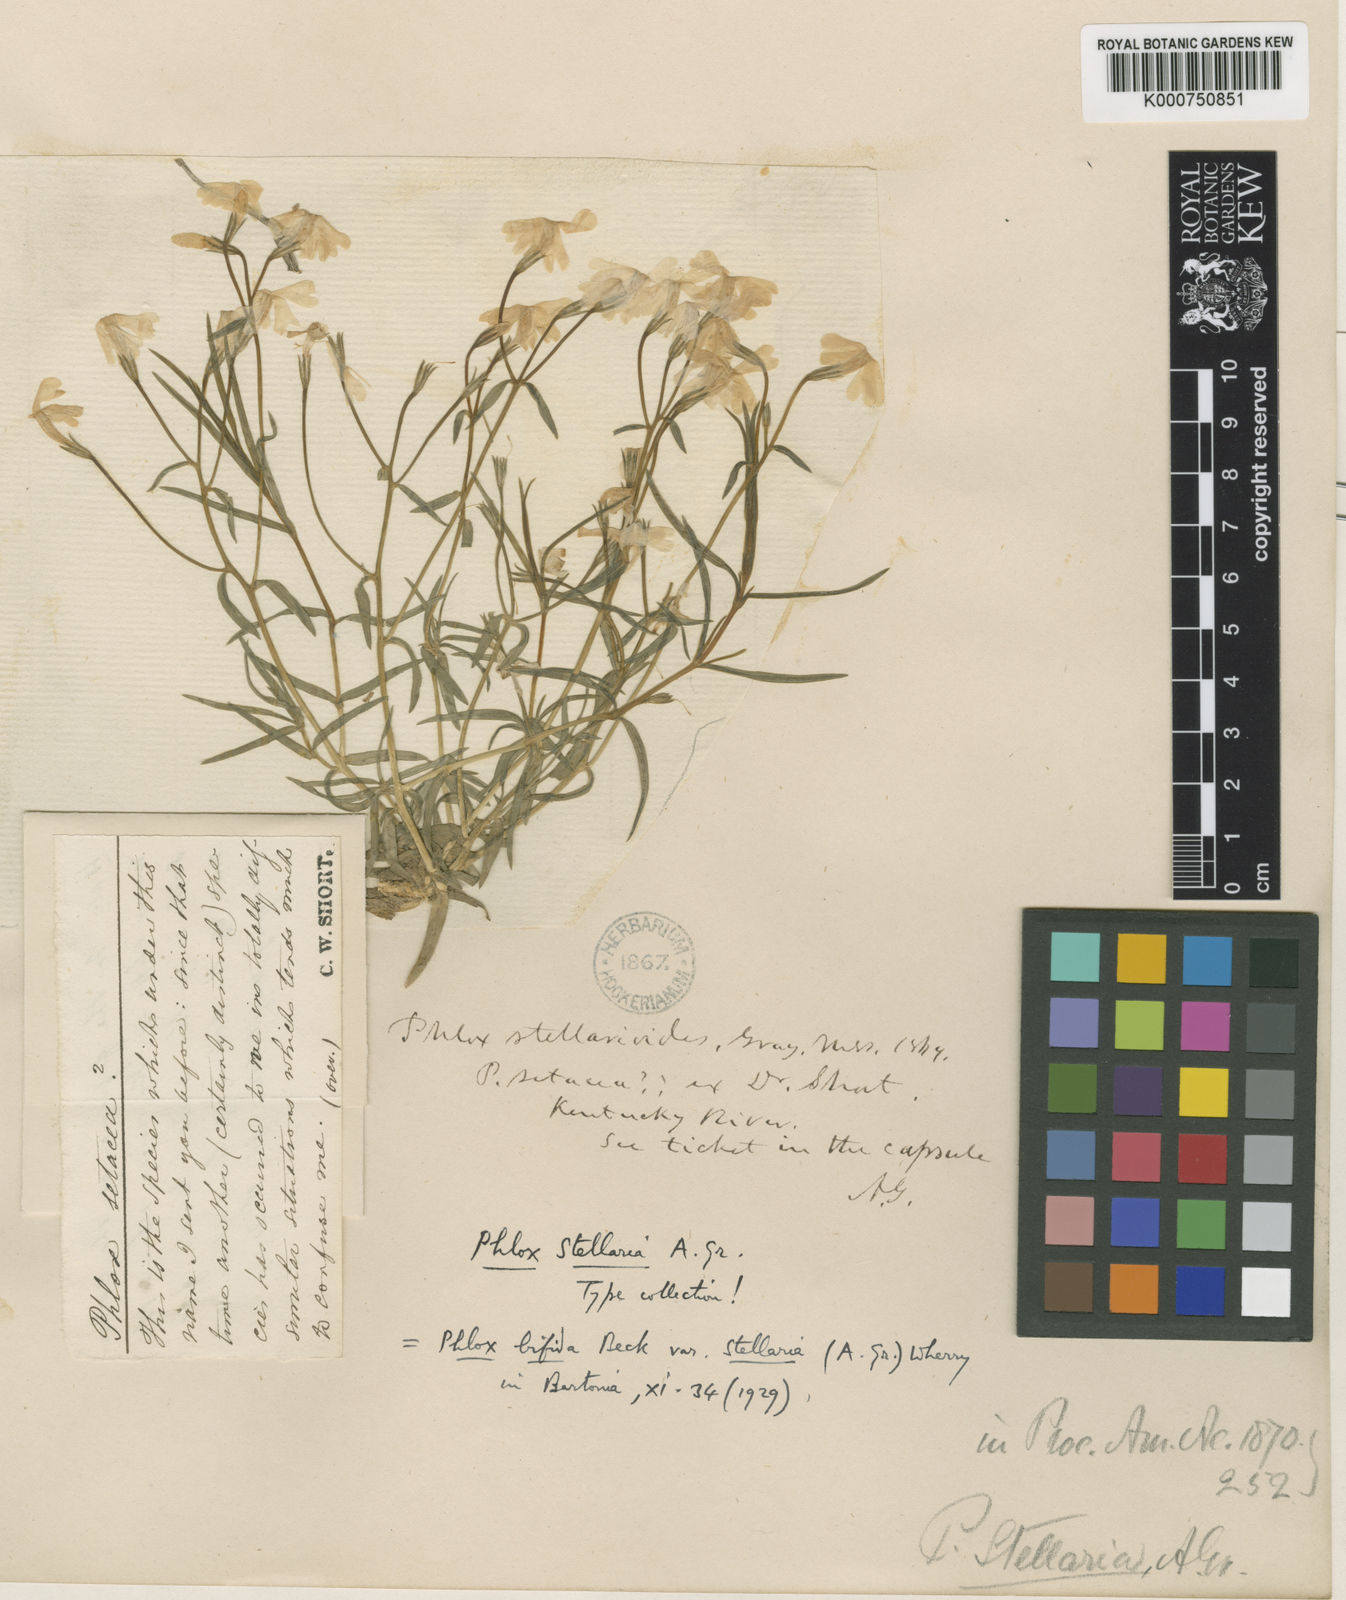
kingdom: Plantae
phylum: Tracheophyta
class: Magnoliopsida
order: Ericales
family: Polemoniaceae
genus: Phlox
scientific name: Phlox bifida
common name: Sand phlox
